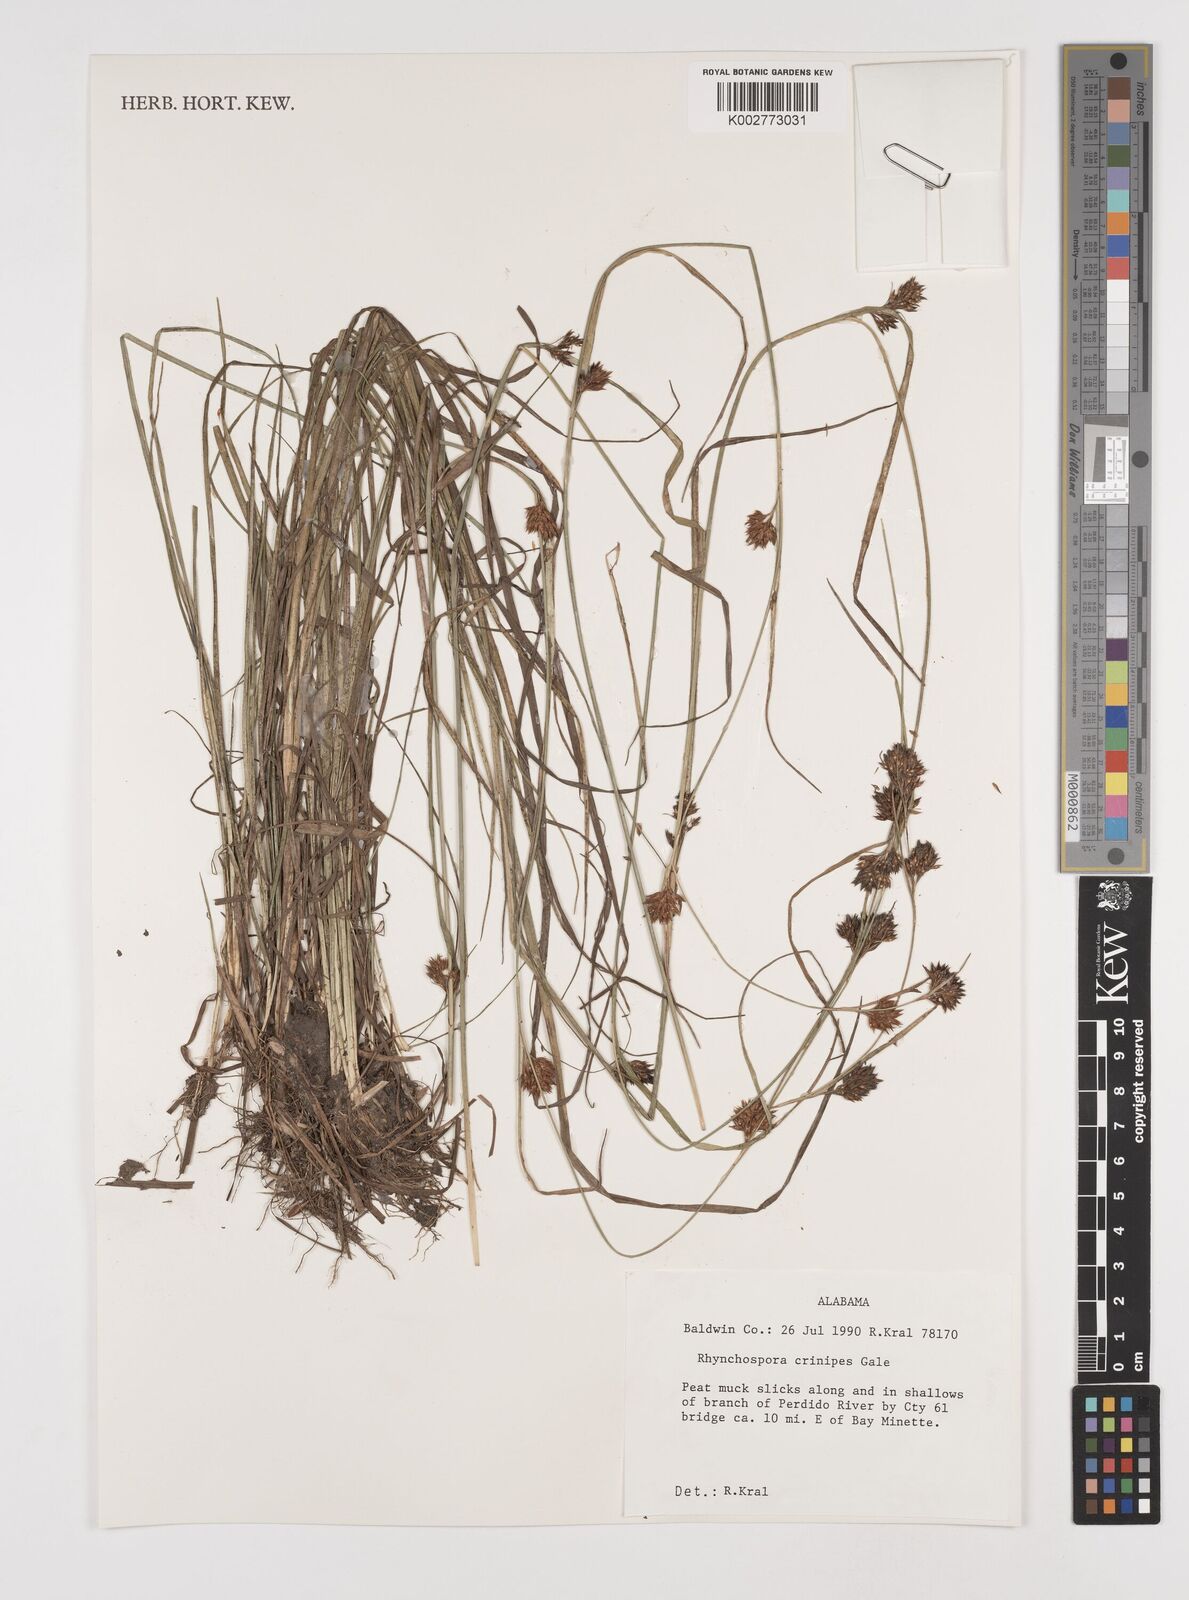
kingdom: Plantae
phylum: Tracheophyta
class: Liliopsida
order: Poales
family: Cyperaceae
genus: Rhynchospora
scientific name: Rhynchospora crinipes
